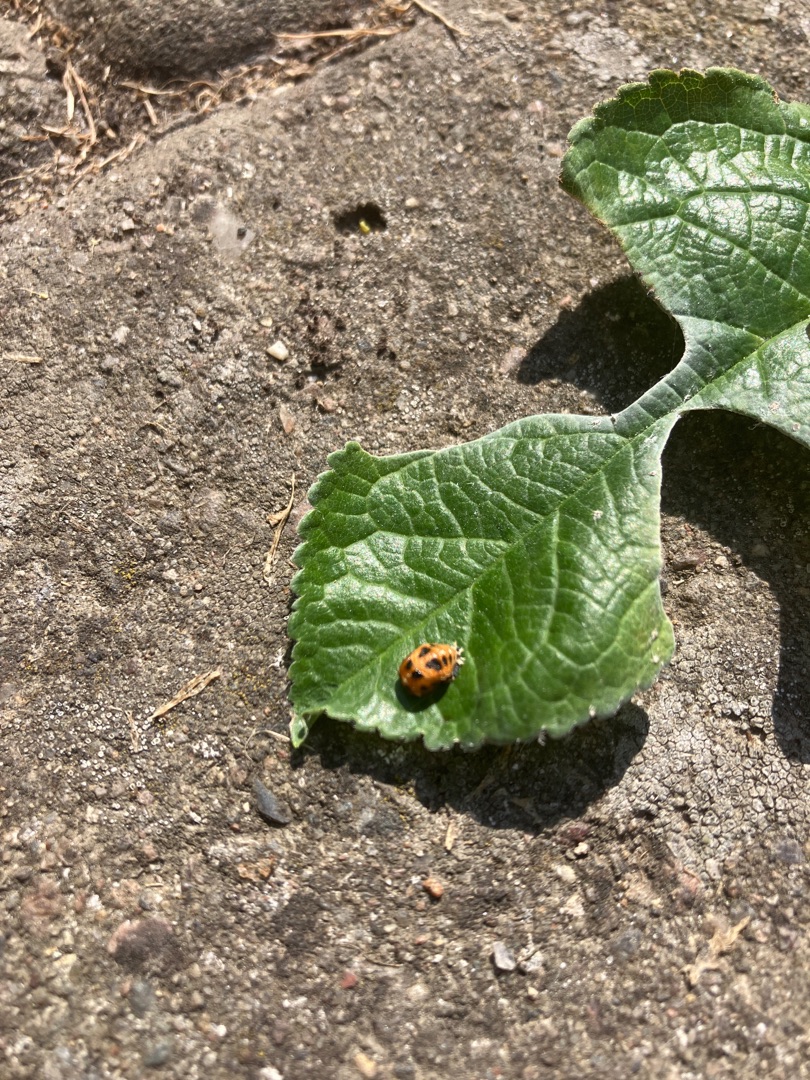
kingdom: Animalia
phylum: Arthropoda
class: Insecta
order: Coleoptera
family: Coccinellidae
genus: Harmonia
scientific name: Harmonia axyridis
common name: Harlekinmariehøne
